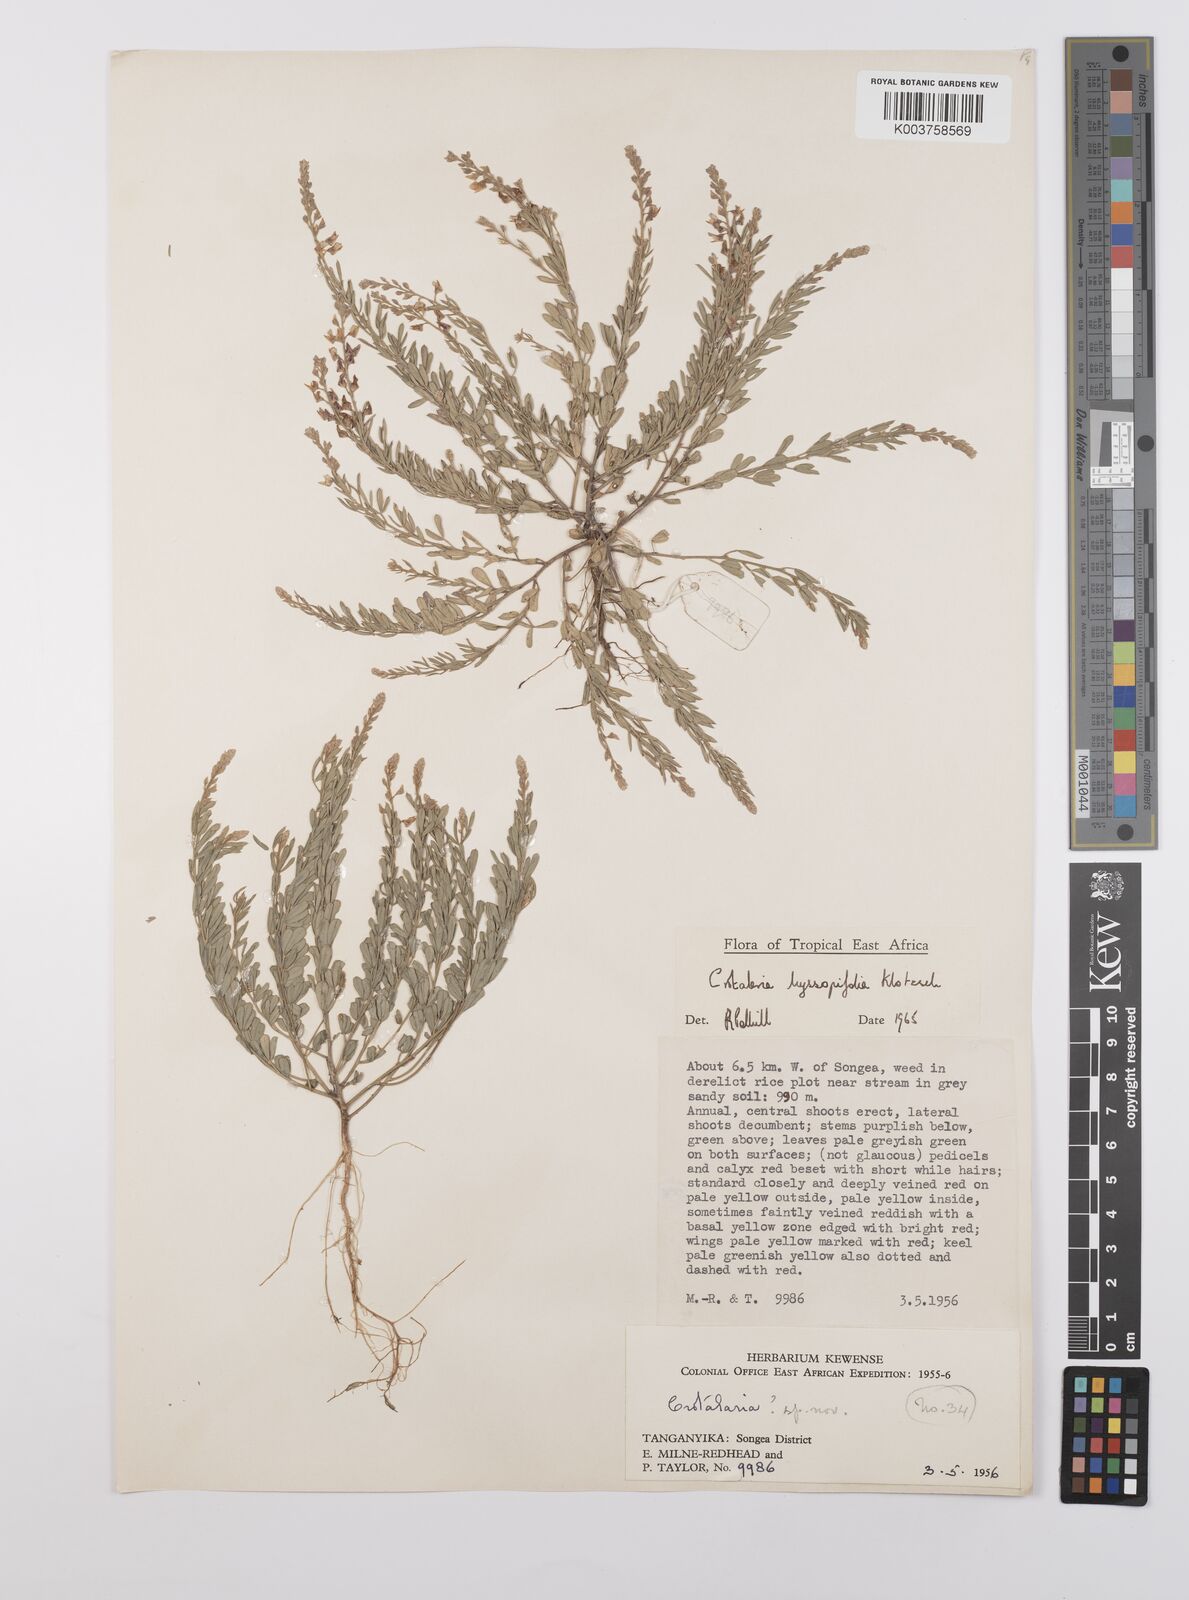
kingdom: Plantae
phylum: Tracheophyta
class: Magnoliopsida
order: Fabales
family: Fabaceae
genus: Crotalaria
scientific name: Crotalaria hyssopifolia
